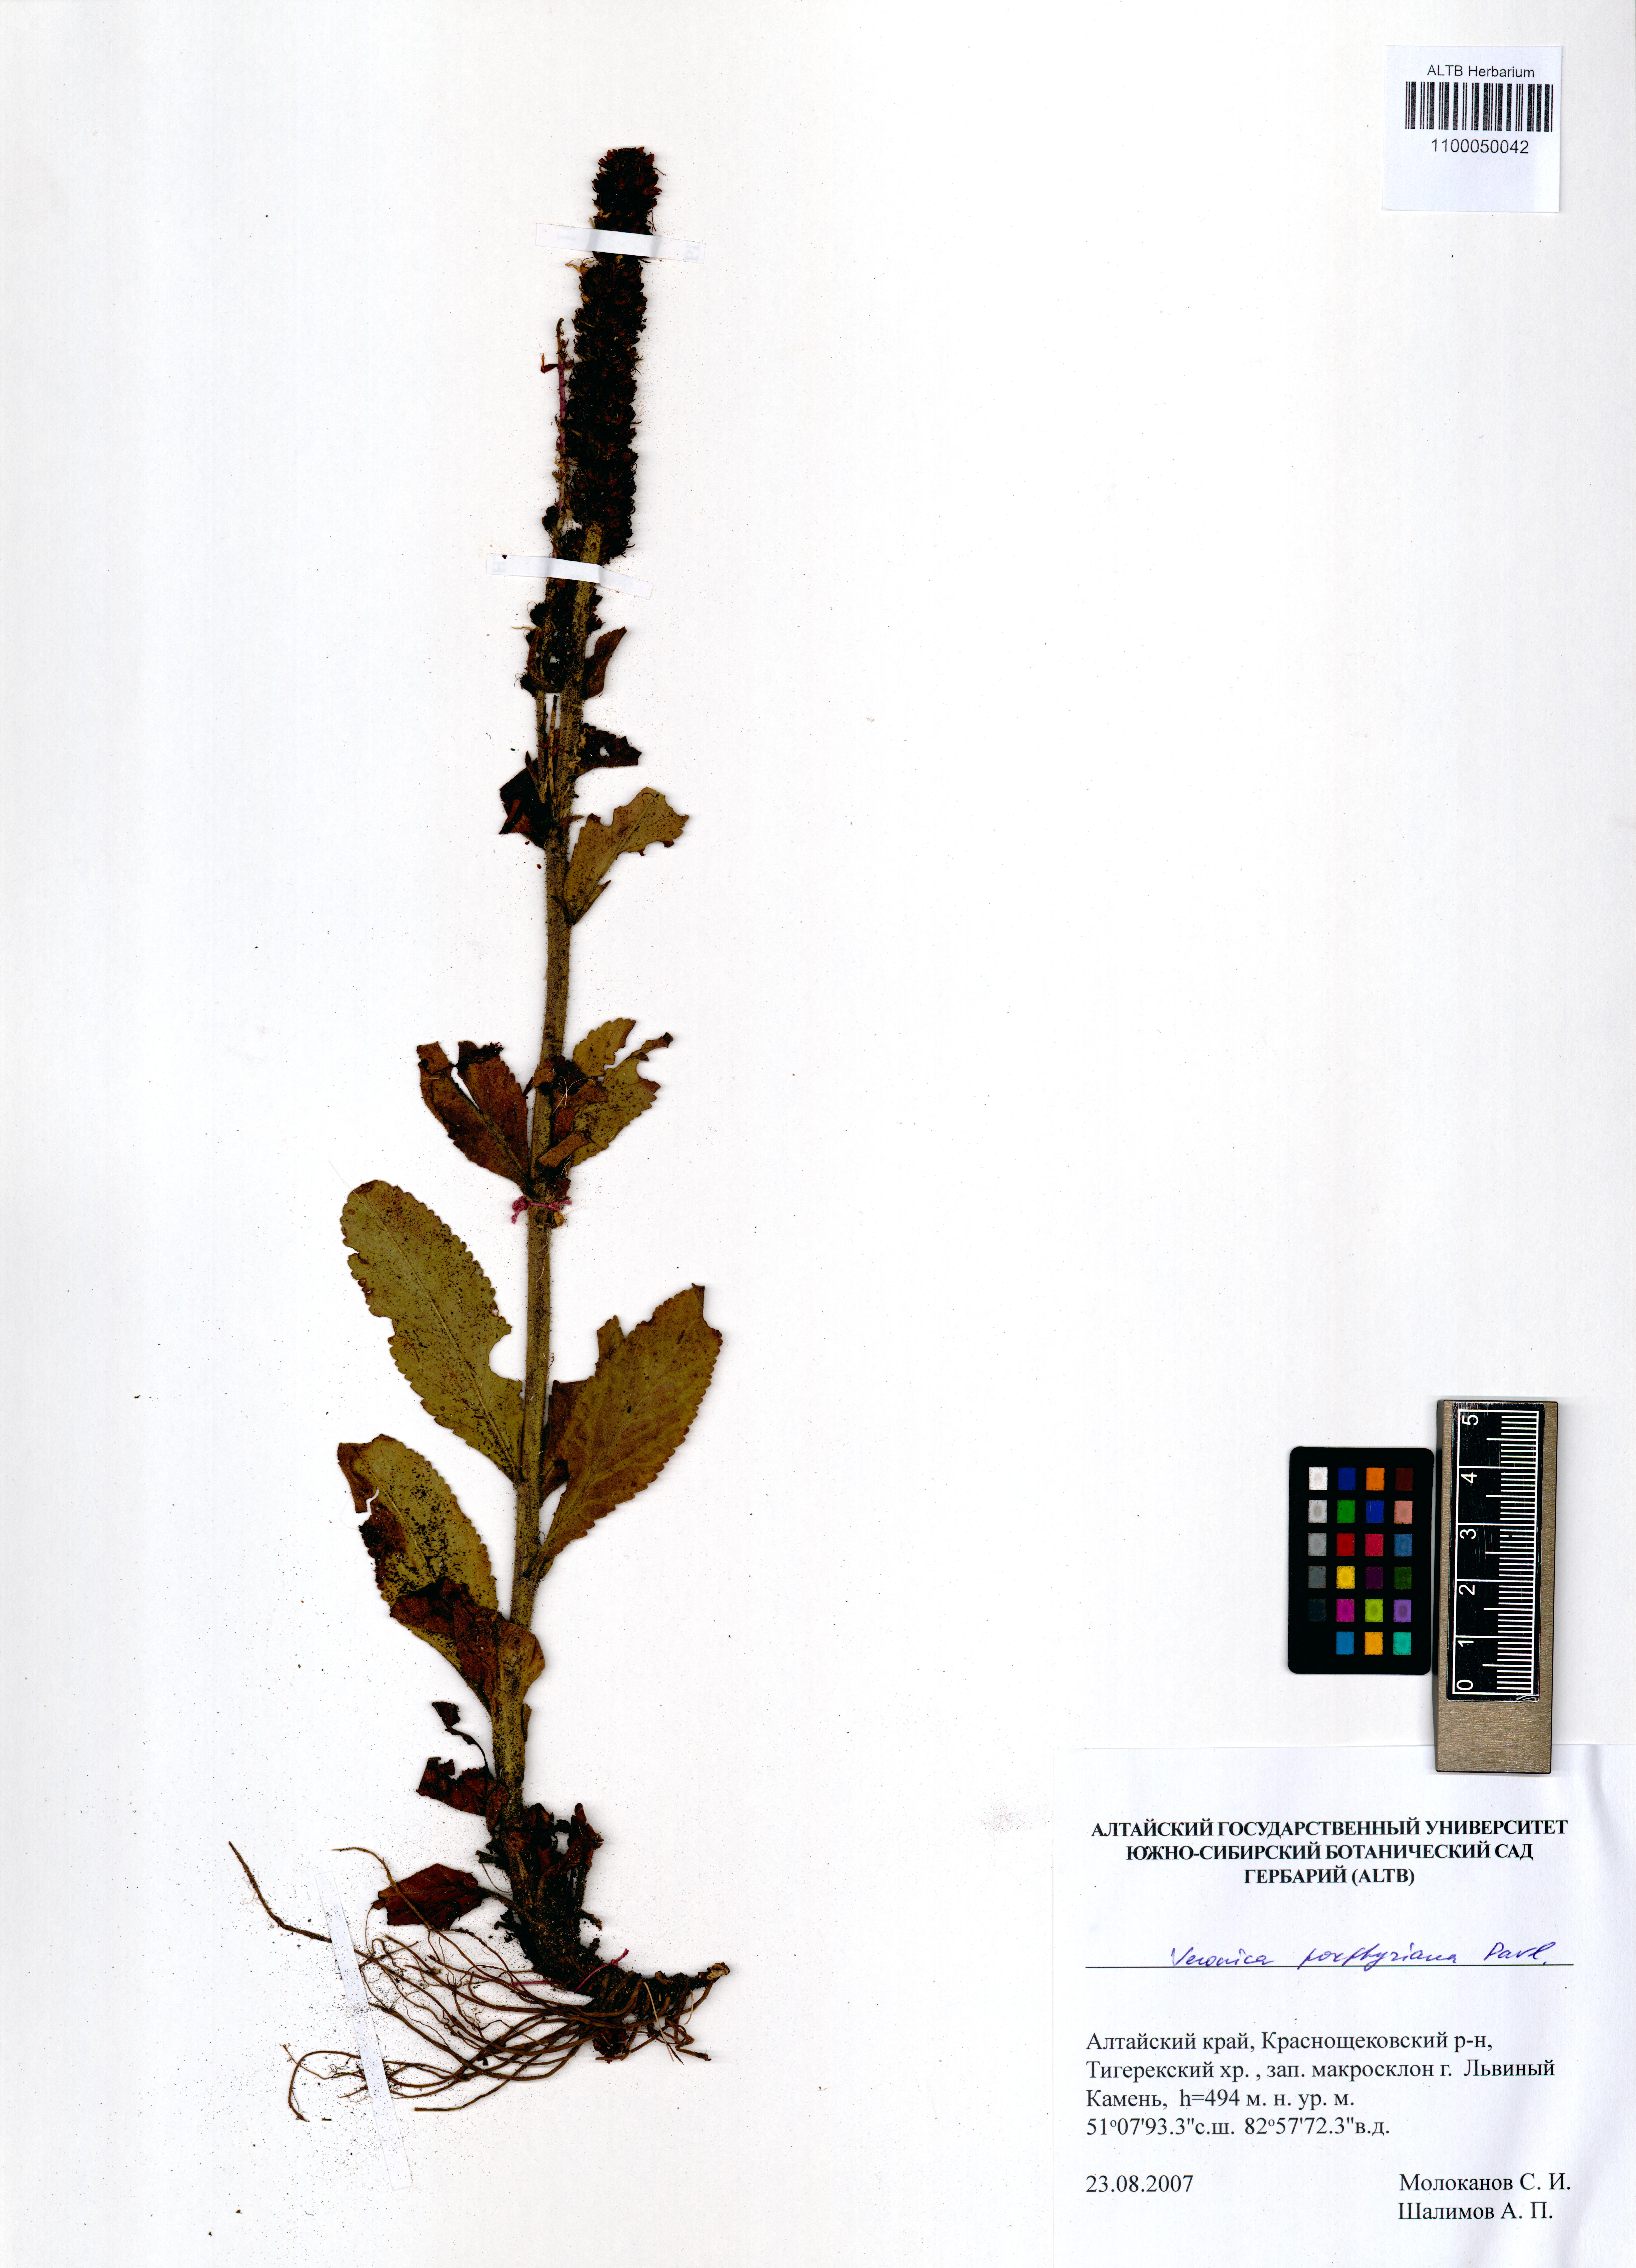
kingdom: Plantae
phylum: Tracheophyta
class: Magnoliopsida
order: Lamiales
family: Plantaginaceae
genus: Veronica
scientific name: Veronica porphyriana
